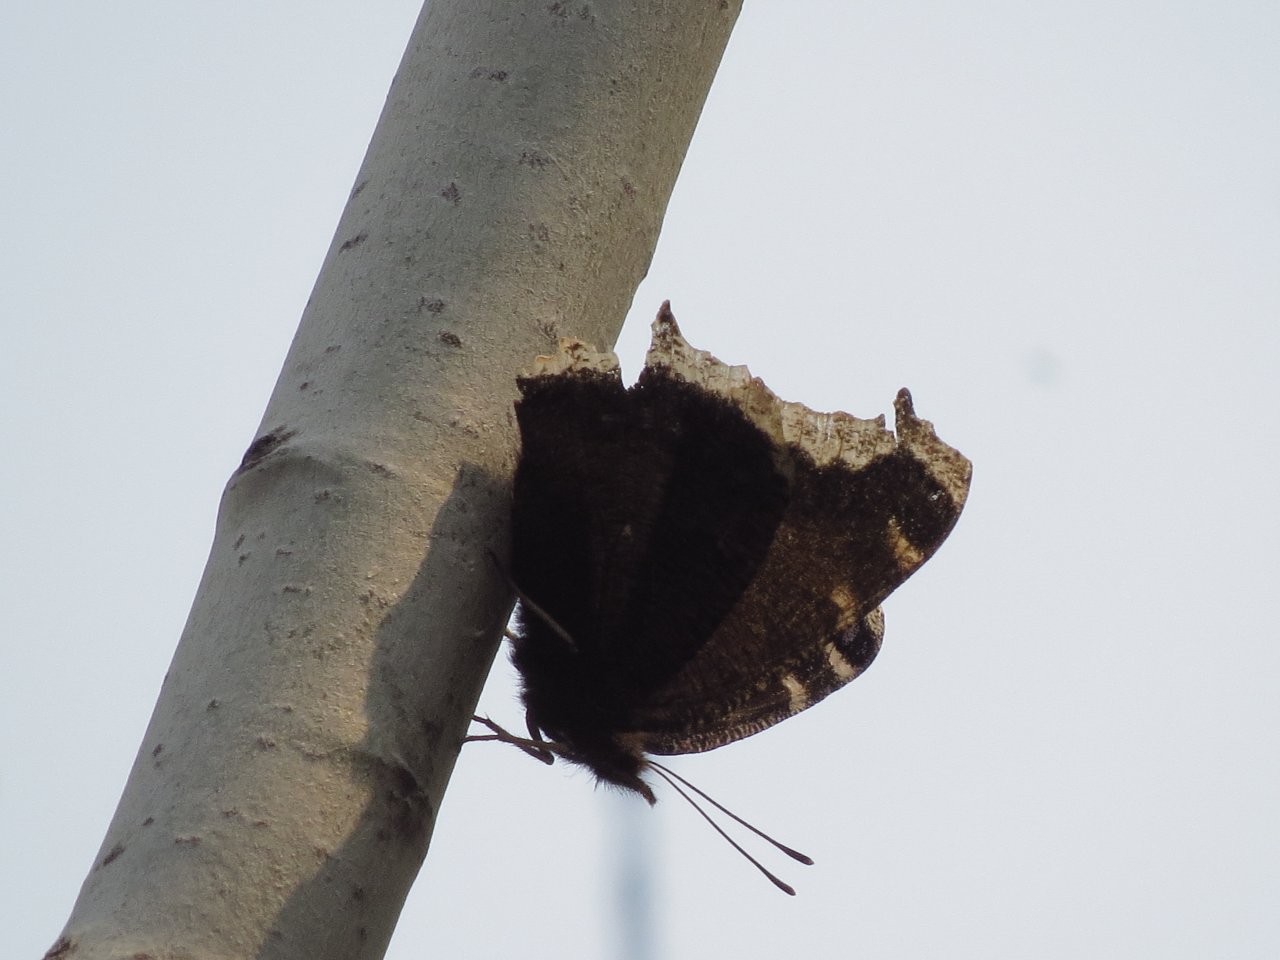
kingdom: Animalia
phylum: Arthropoda
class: Insecta
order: Lepidoptera
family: Nymphalidae
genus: Nymphalis
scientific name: Nymphalis antiopa
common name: Mourning Cloak
